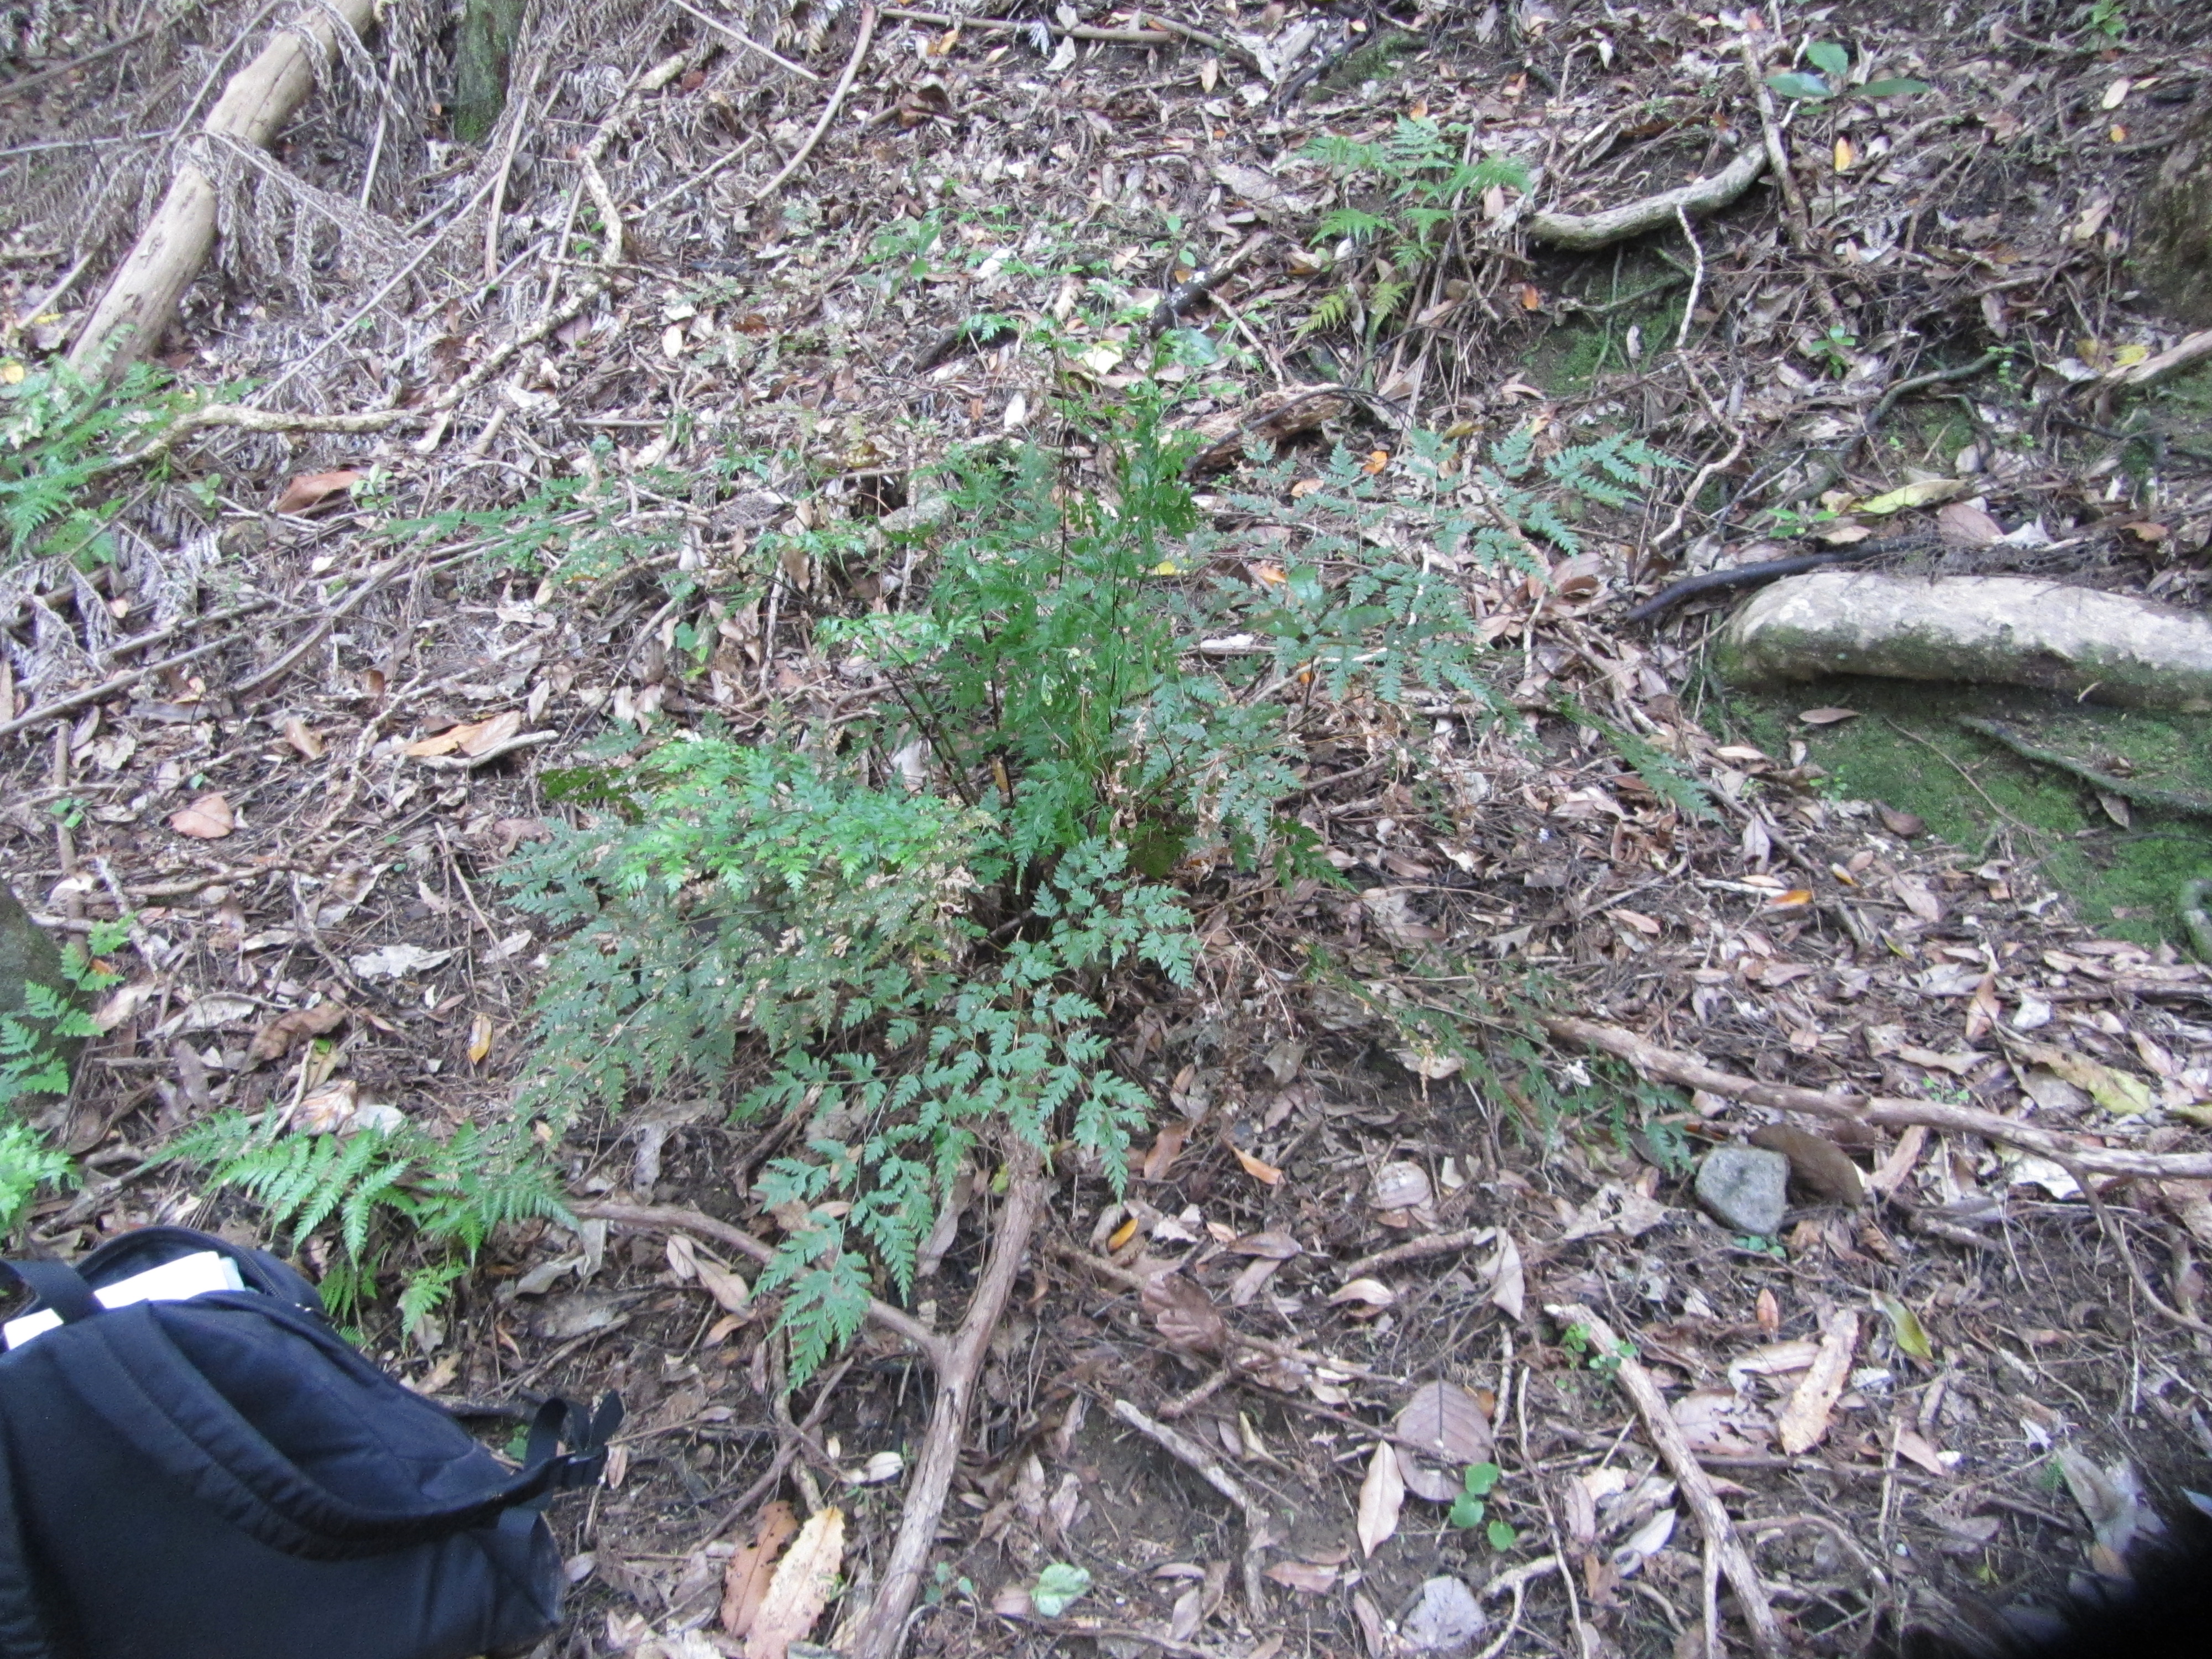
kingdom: Plantae
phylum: Tracheophyta
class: Polypodiopsida
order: Polypodiales
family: Pteridaceae
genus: Pteris
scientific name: Pteris
